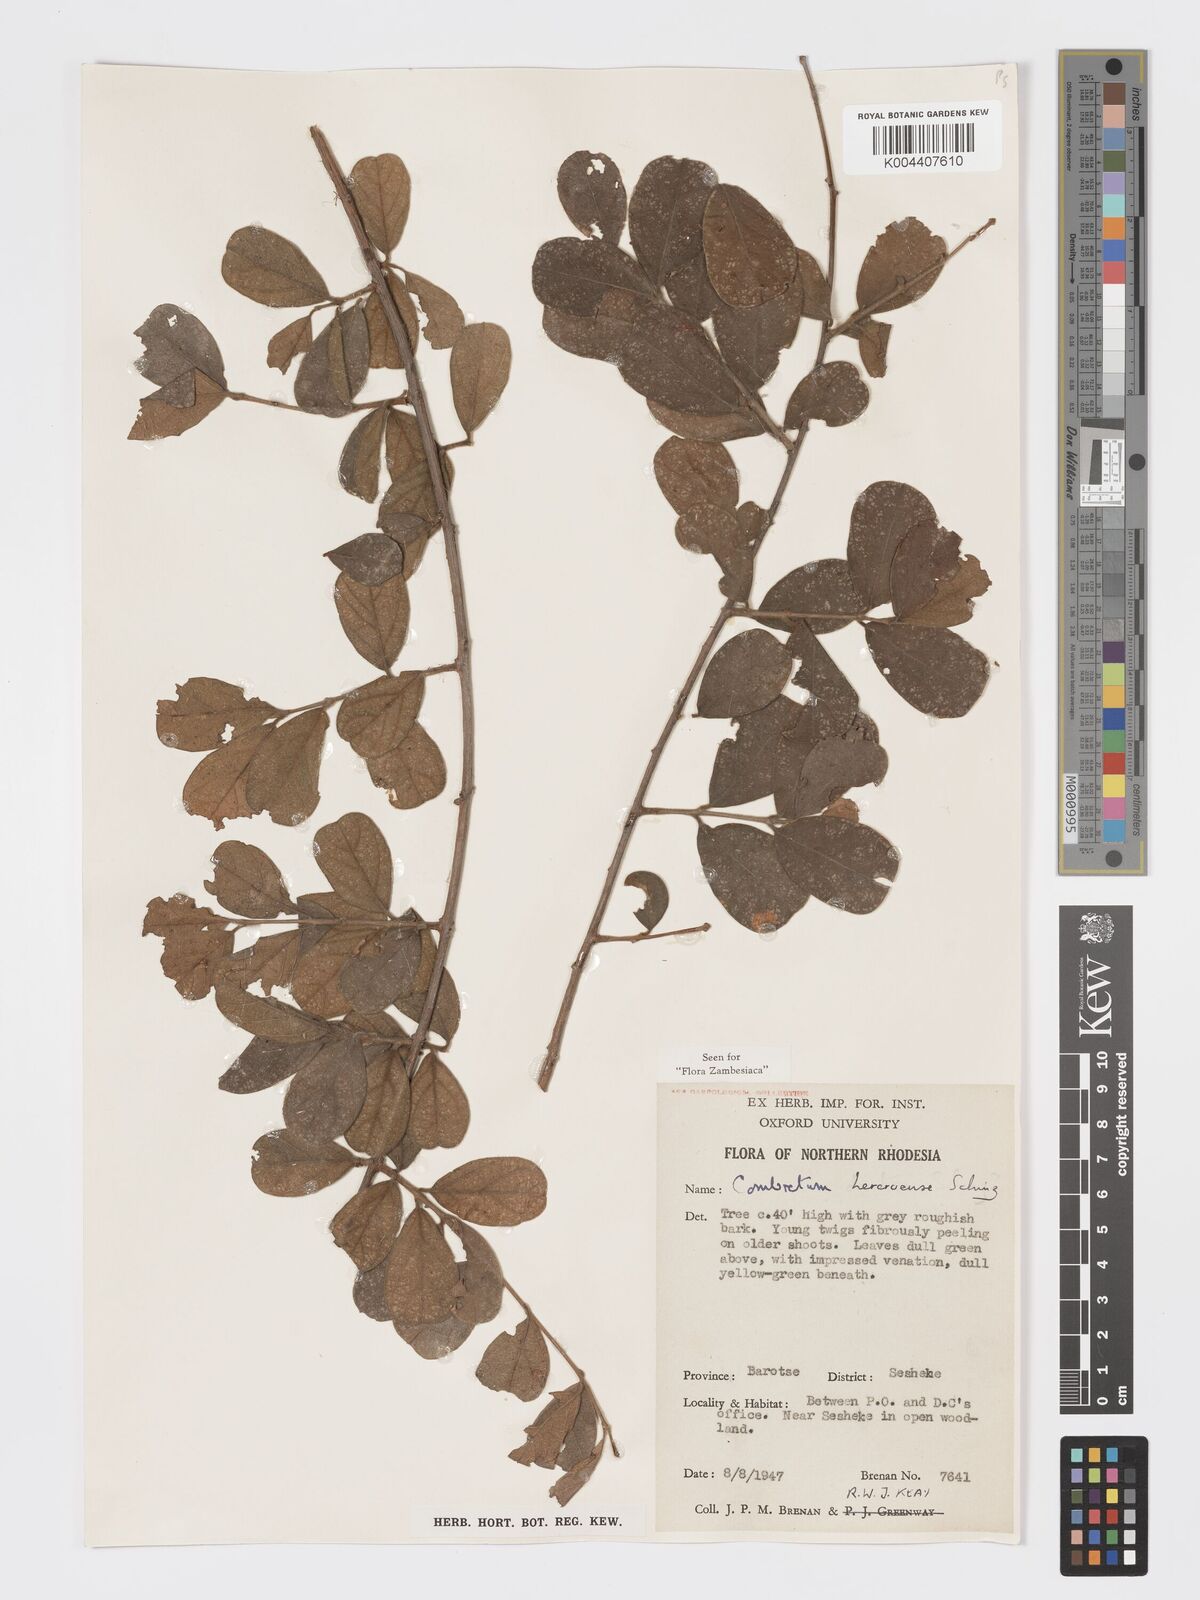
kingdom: Plantae
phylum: Tracheophyta
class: Magnoliopsida
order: Myrtales
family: Combretaceae
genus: Combretum
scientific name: Combretum hereroense
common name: Russet bushwillow
